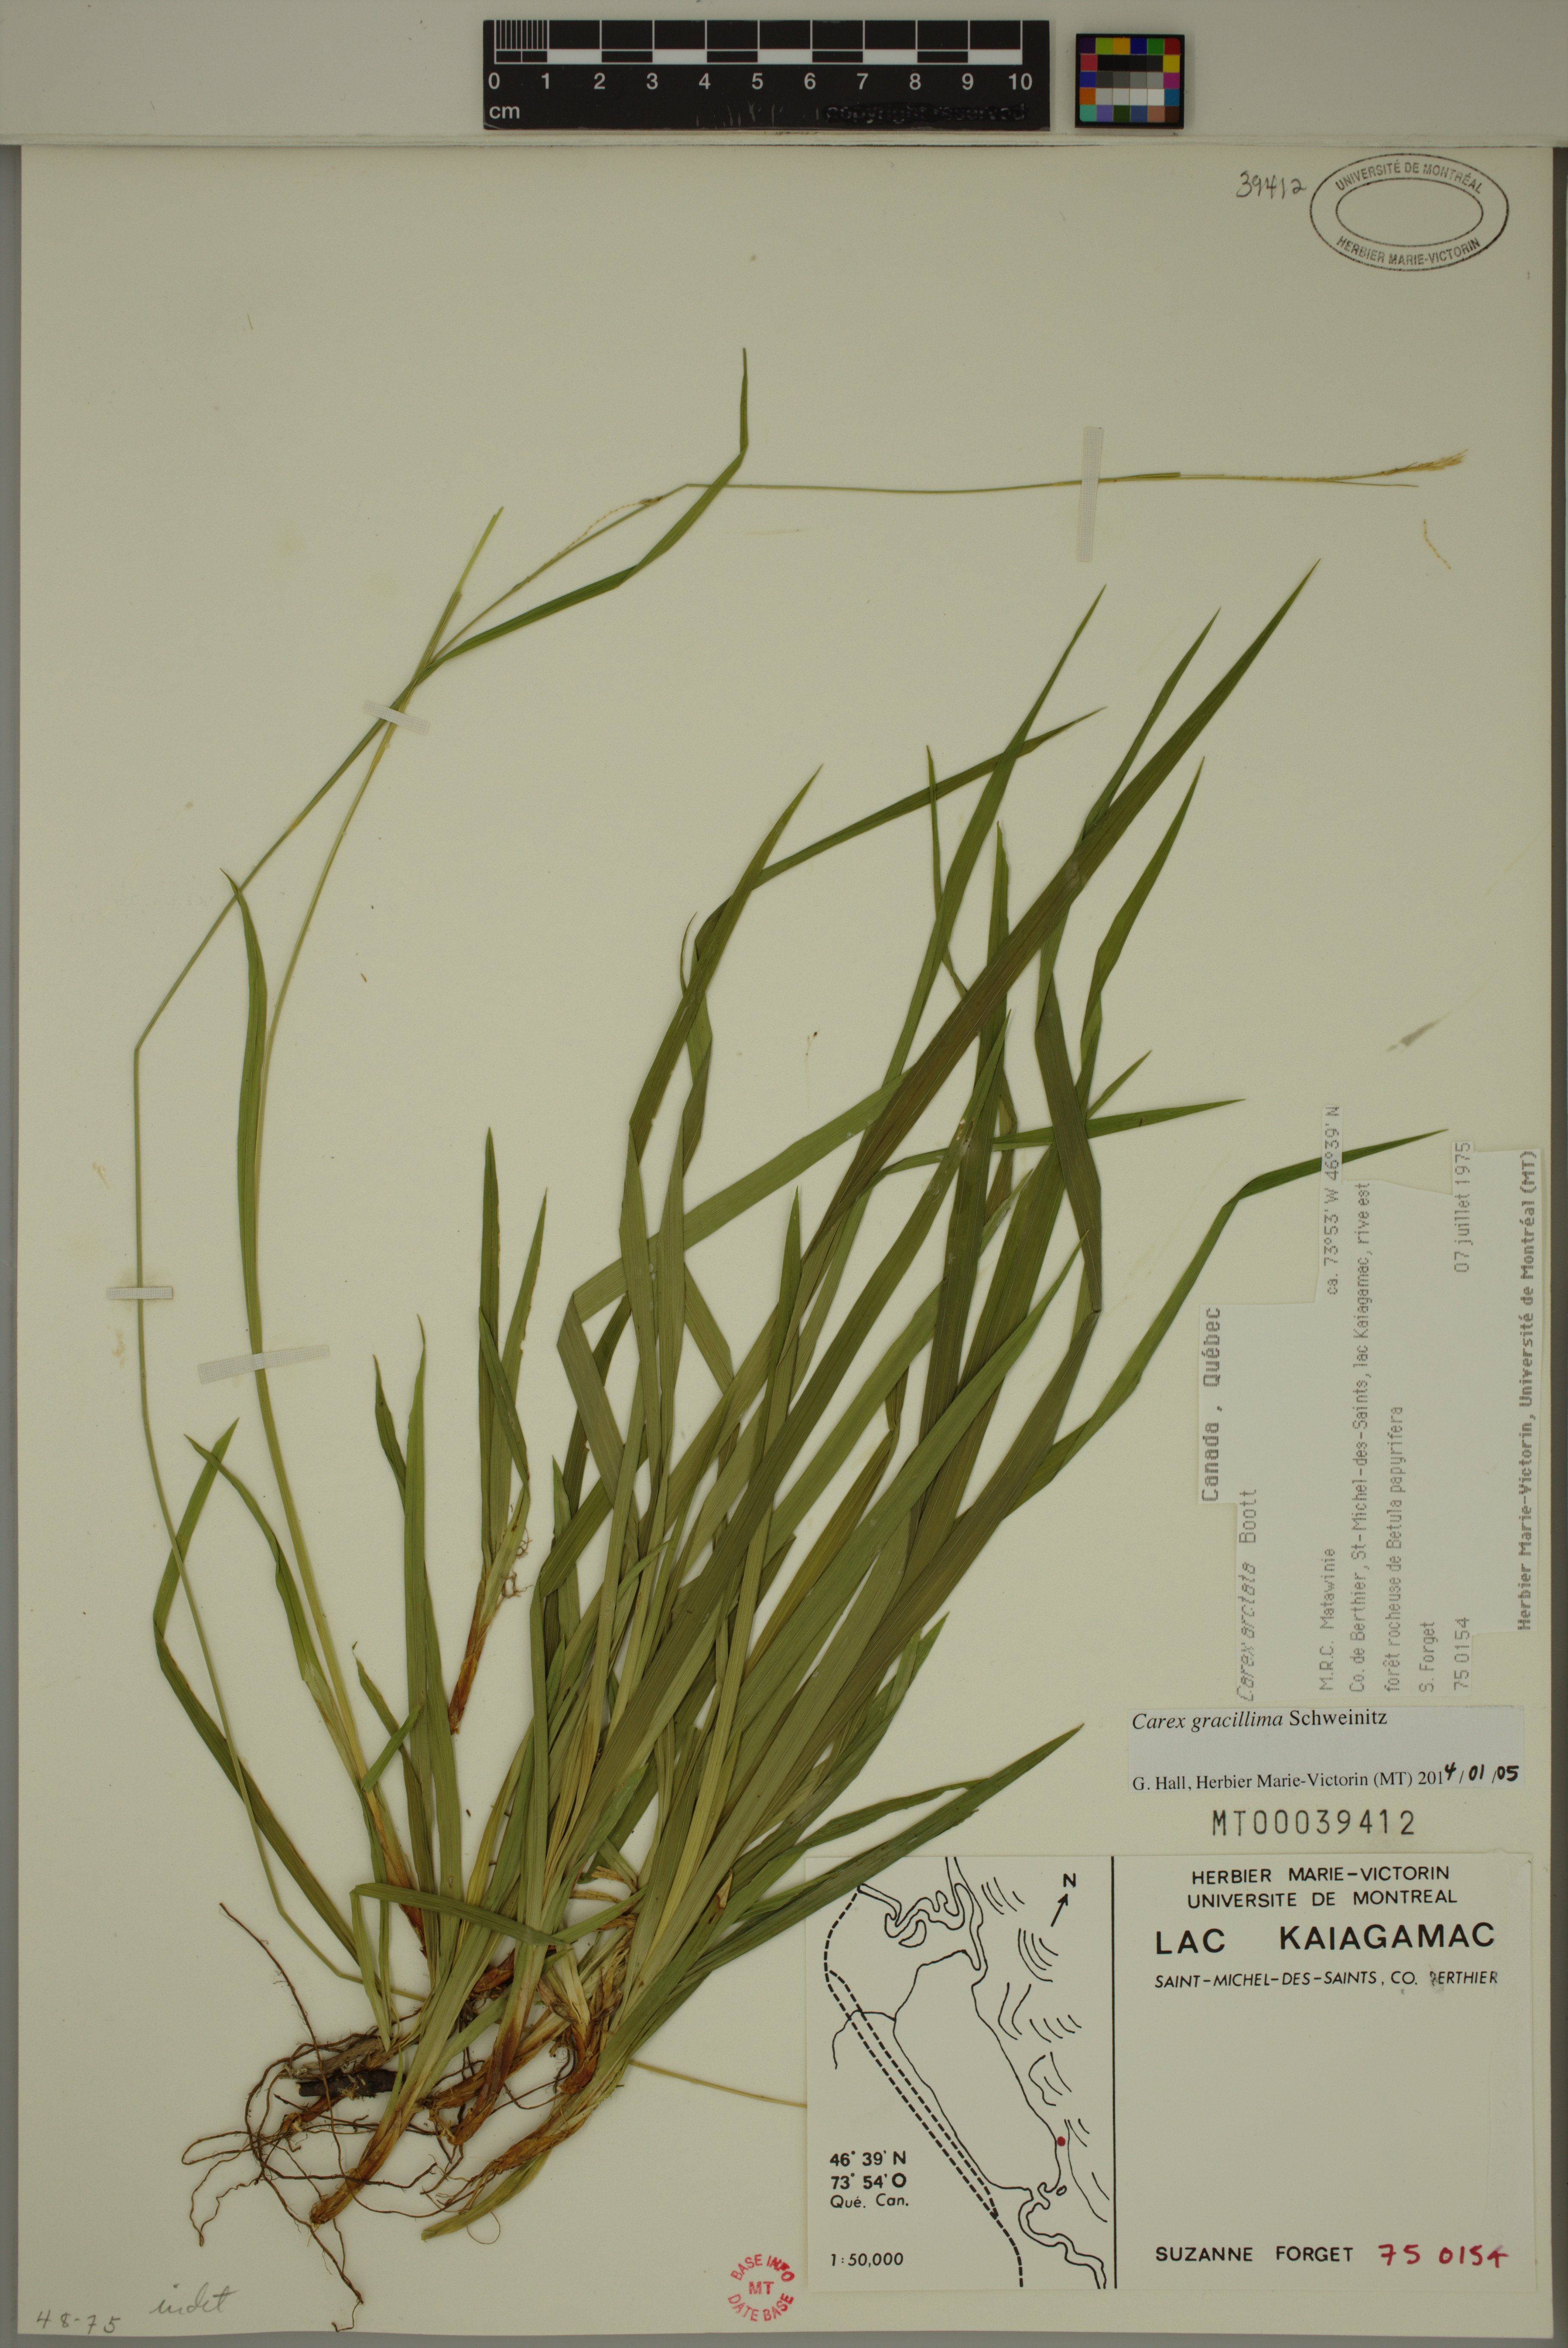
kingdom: Plantae
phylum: Tracheophyta
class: Liliopsida
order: Poales
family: Cyperaceae
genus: Carex
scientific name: Carex gracillima
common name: Graceful sedge
